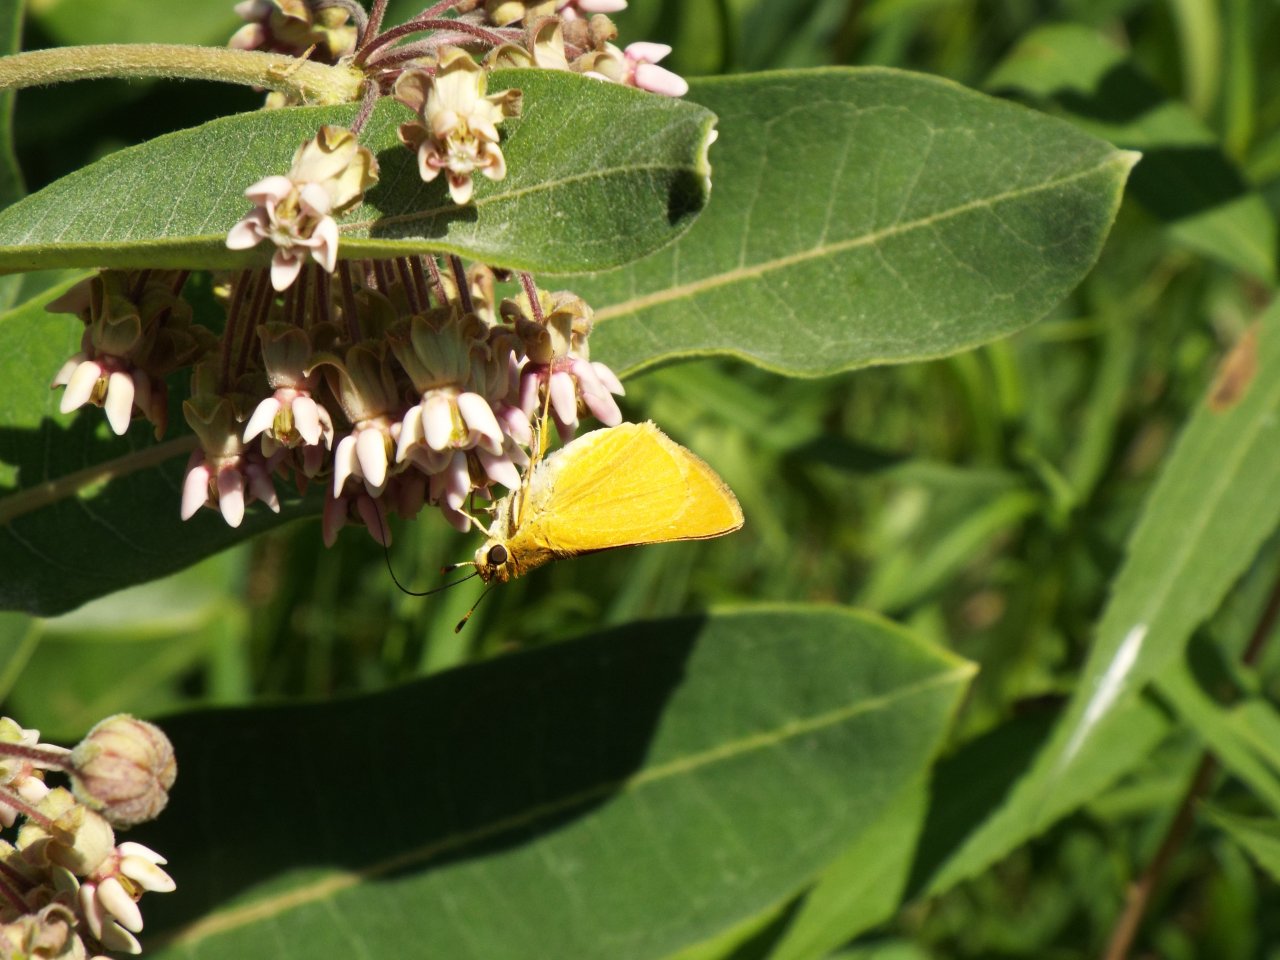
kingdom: Animalia
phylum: Arthropoda
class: Insecta
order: Lepidoptera
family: Hesperiidae
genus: Atrytone
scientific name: Atrytone delaware
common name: Delaware Skipper
